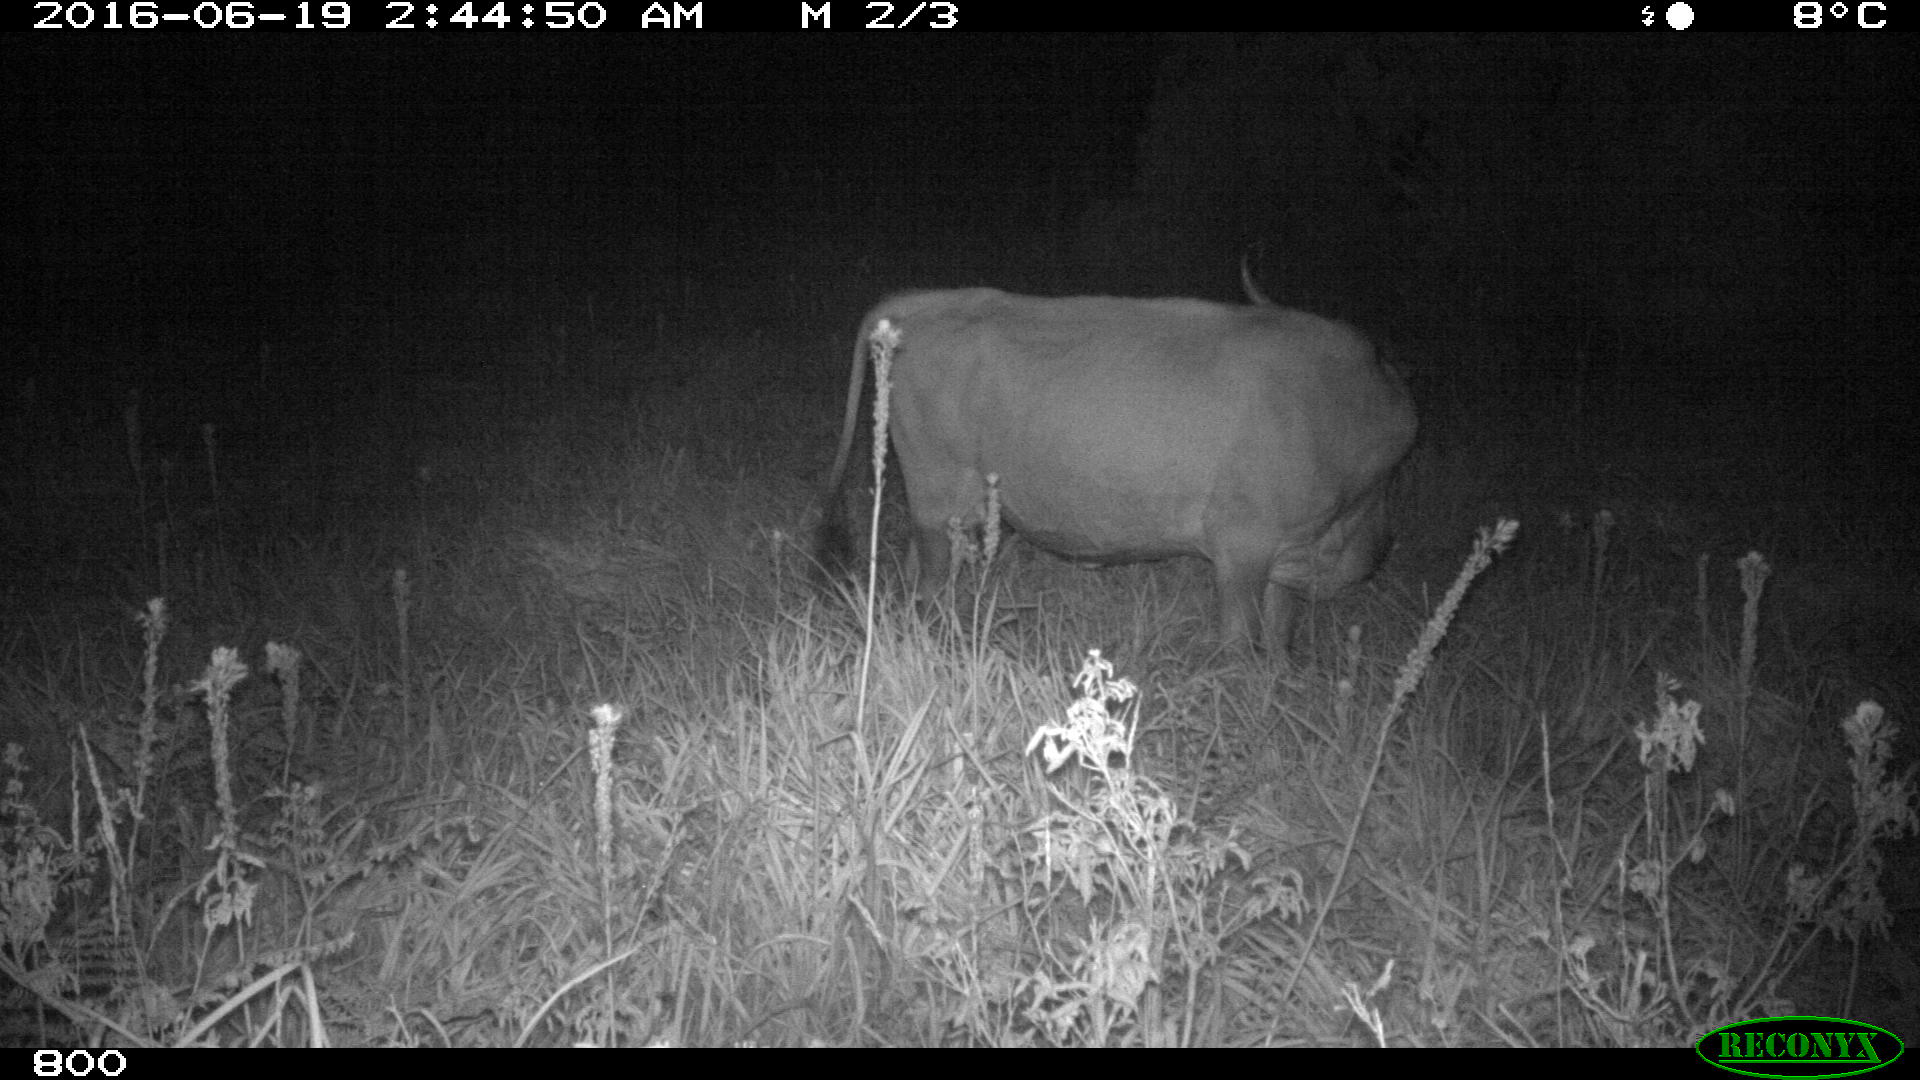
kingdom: Animalia
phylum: Chordata
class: Mammalia
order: Artiodactyla
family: Bovidae
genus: Bos
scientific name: Bos taurus
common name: Domesticated cattle
